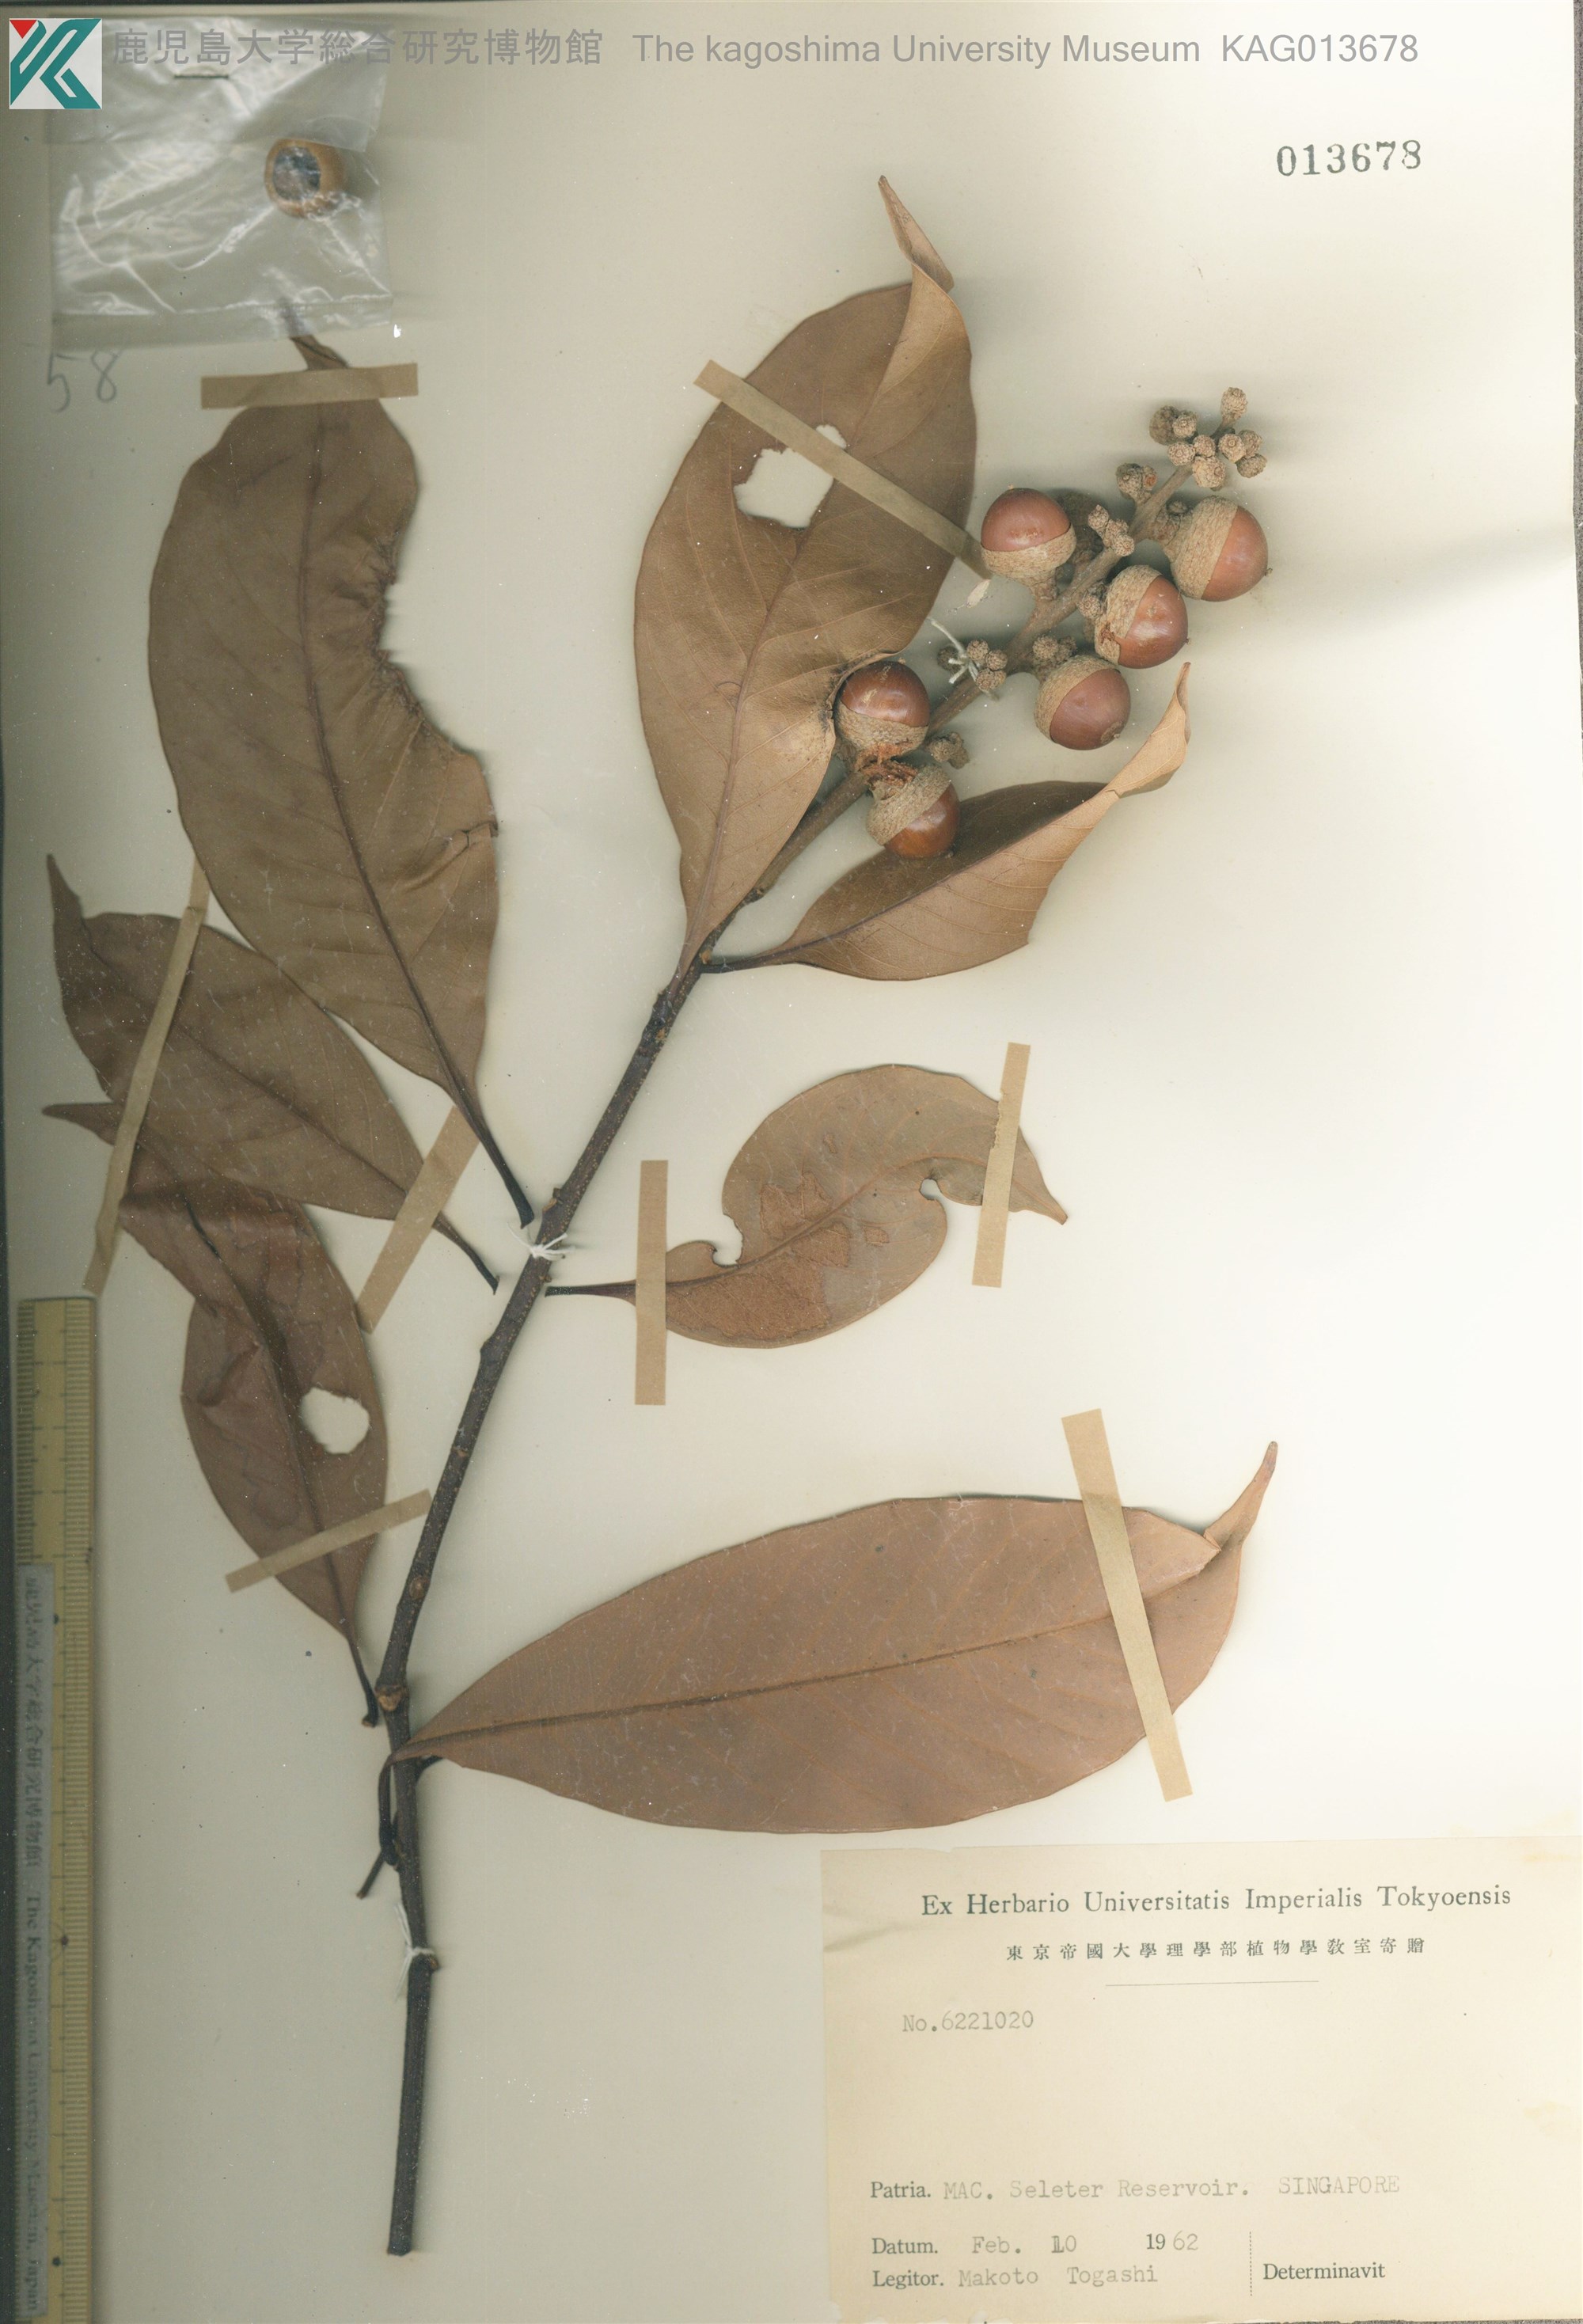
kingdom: Plantae
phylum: Tracheophyta
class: Magnoliopsida
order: Fagales
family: Fagaceae
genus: Lithocarpus
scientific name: Lithocarpus elegans
